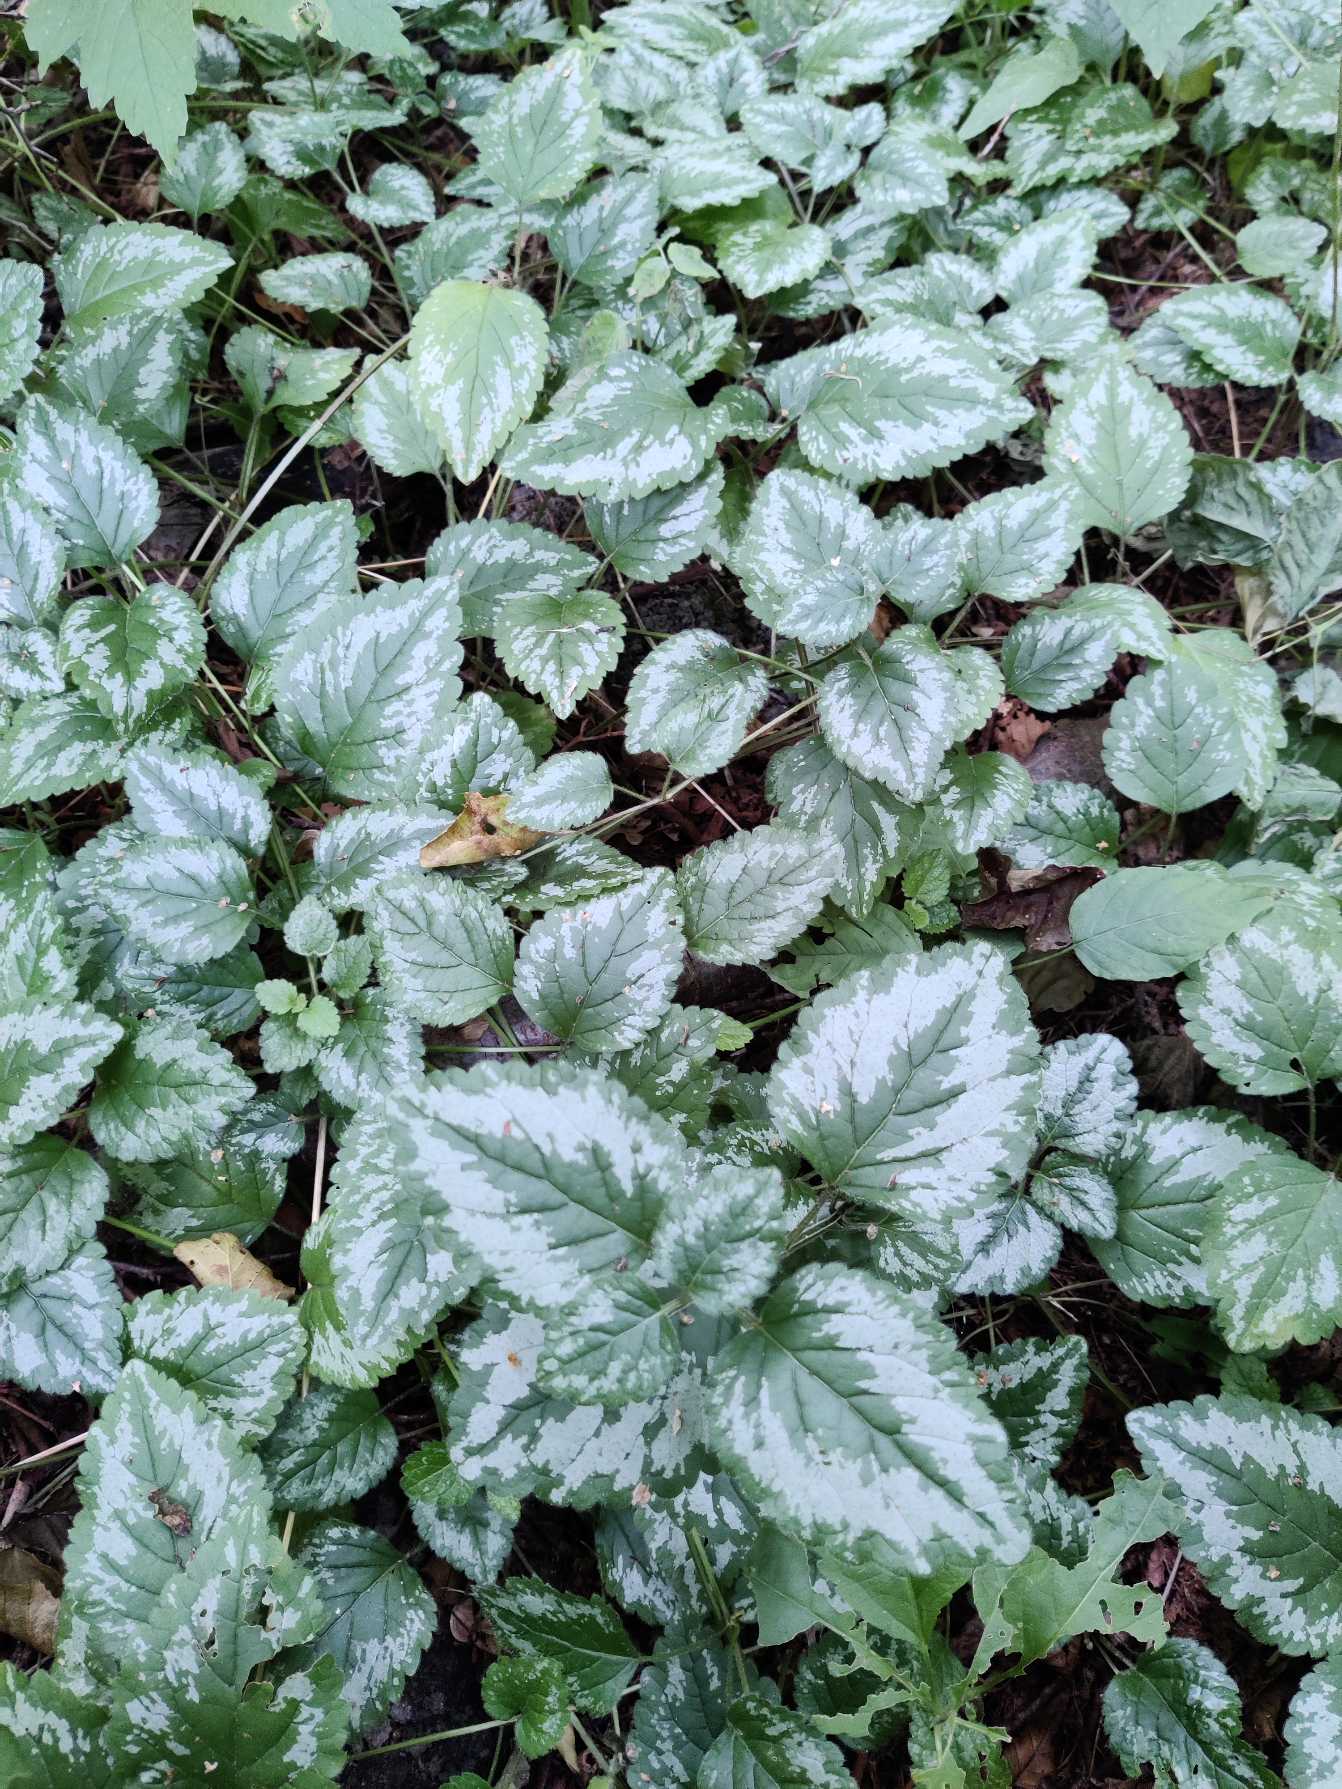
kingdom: Plantae
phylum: Tracheophyta
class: Magnoliopsida
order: Lamiales
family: Lamiaceae
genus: Lamium
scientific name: Lamium galeobdolon
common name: Have-guldnælde
